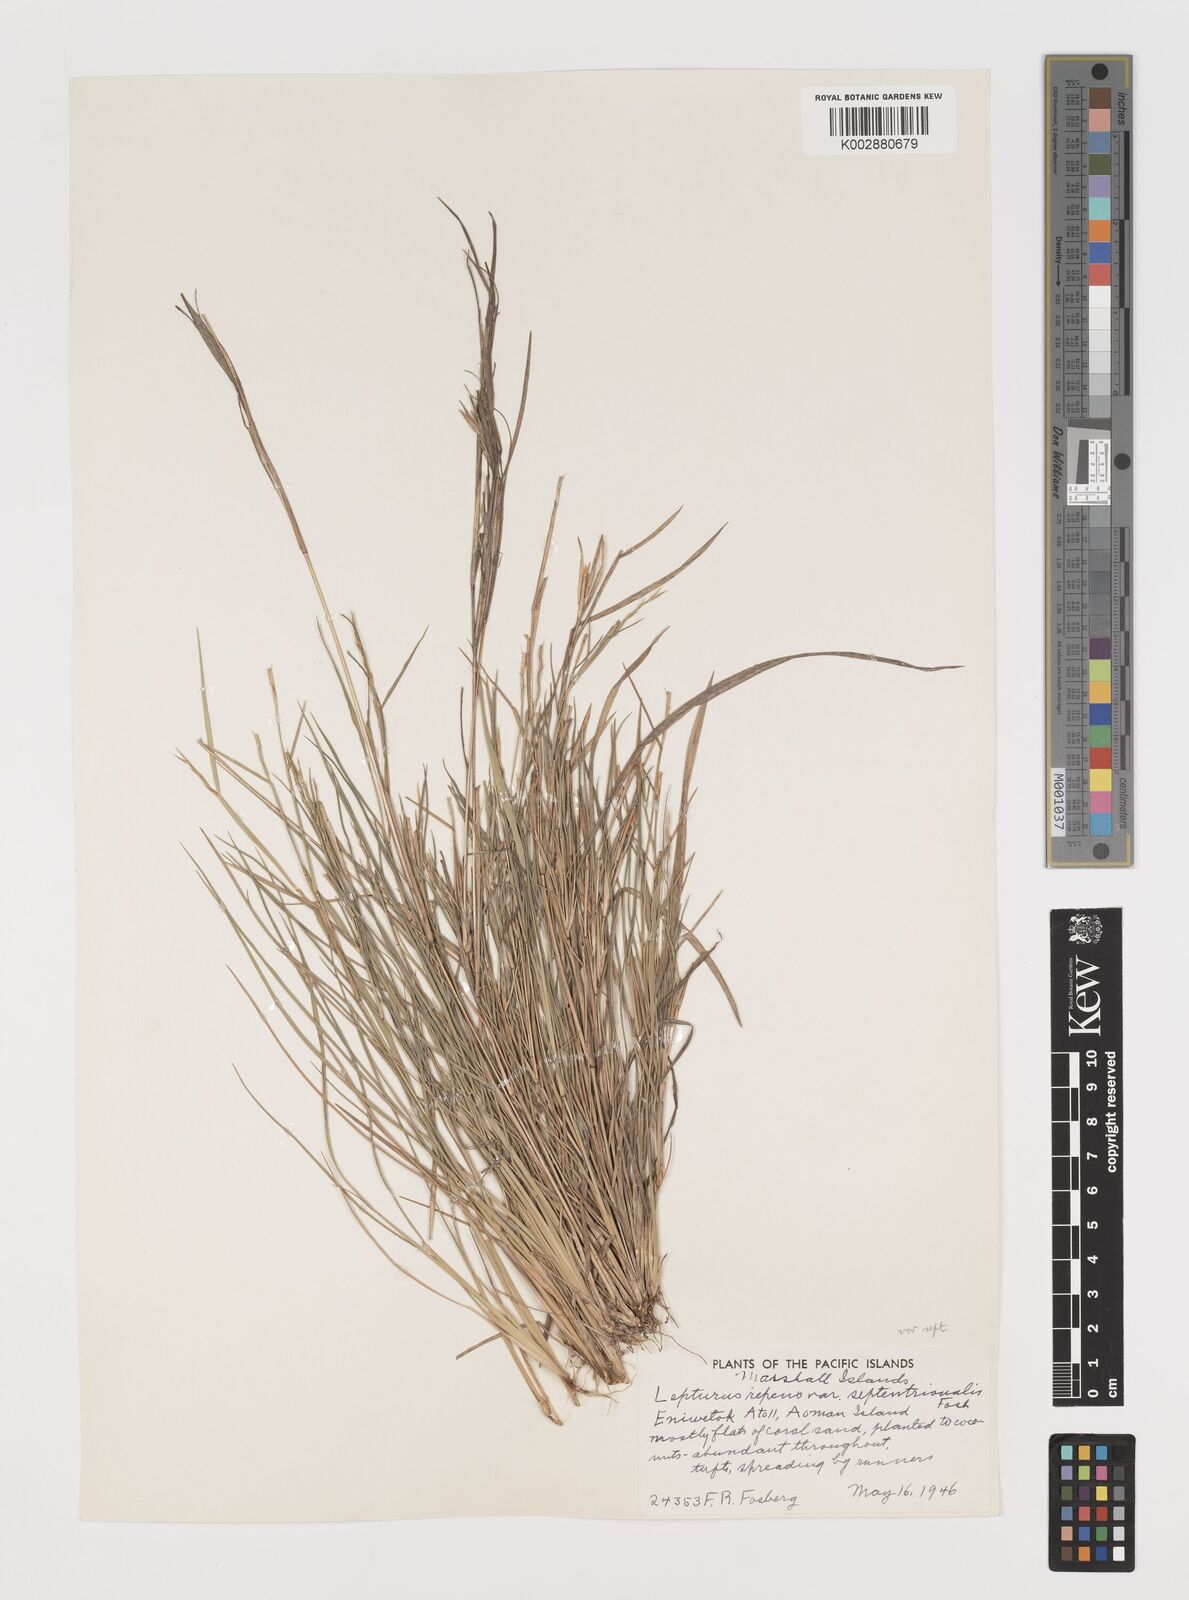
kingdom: Plantae
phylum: Tracheophyta
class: Liliopsida
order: Poales
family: Poaceae
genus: Lepturus
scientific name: Lepturus repens
